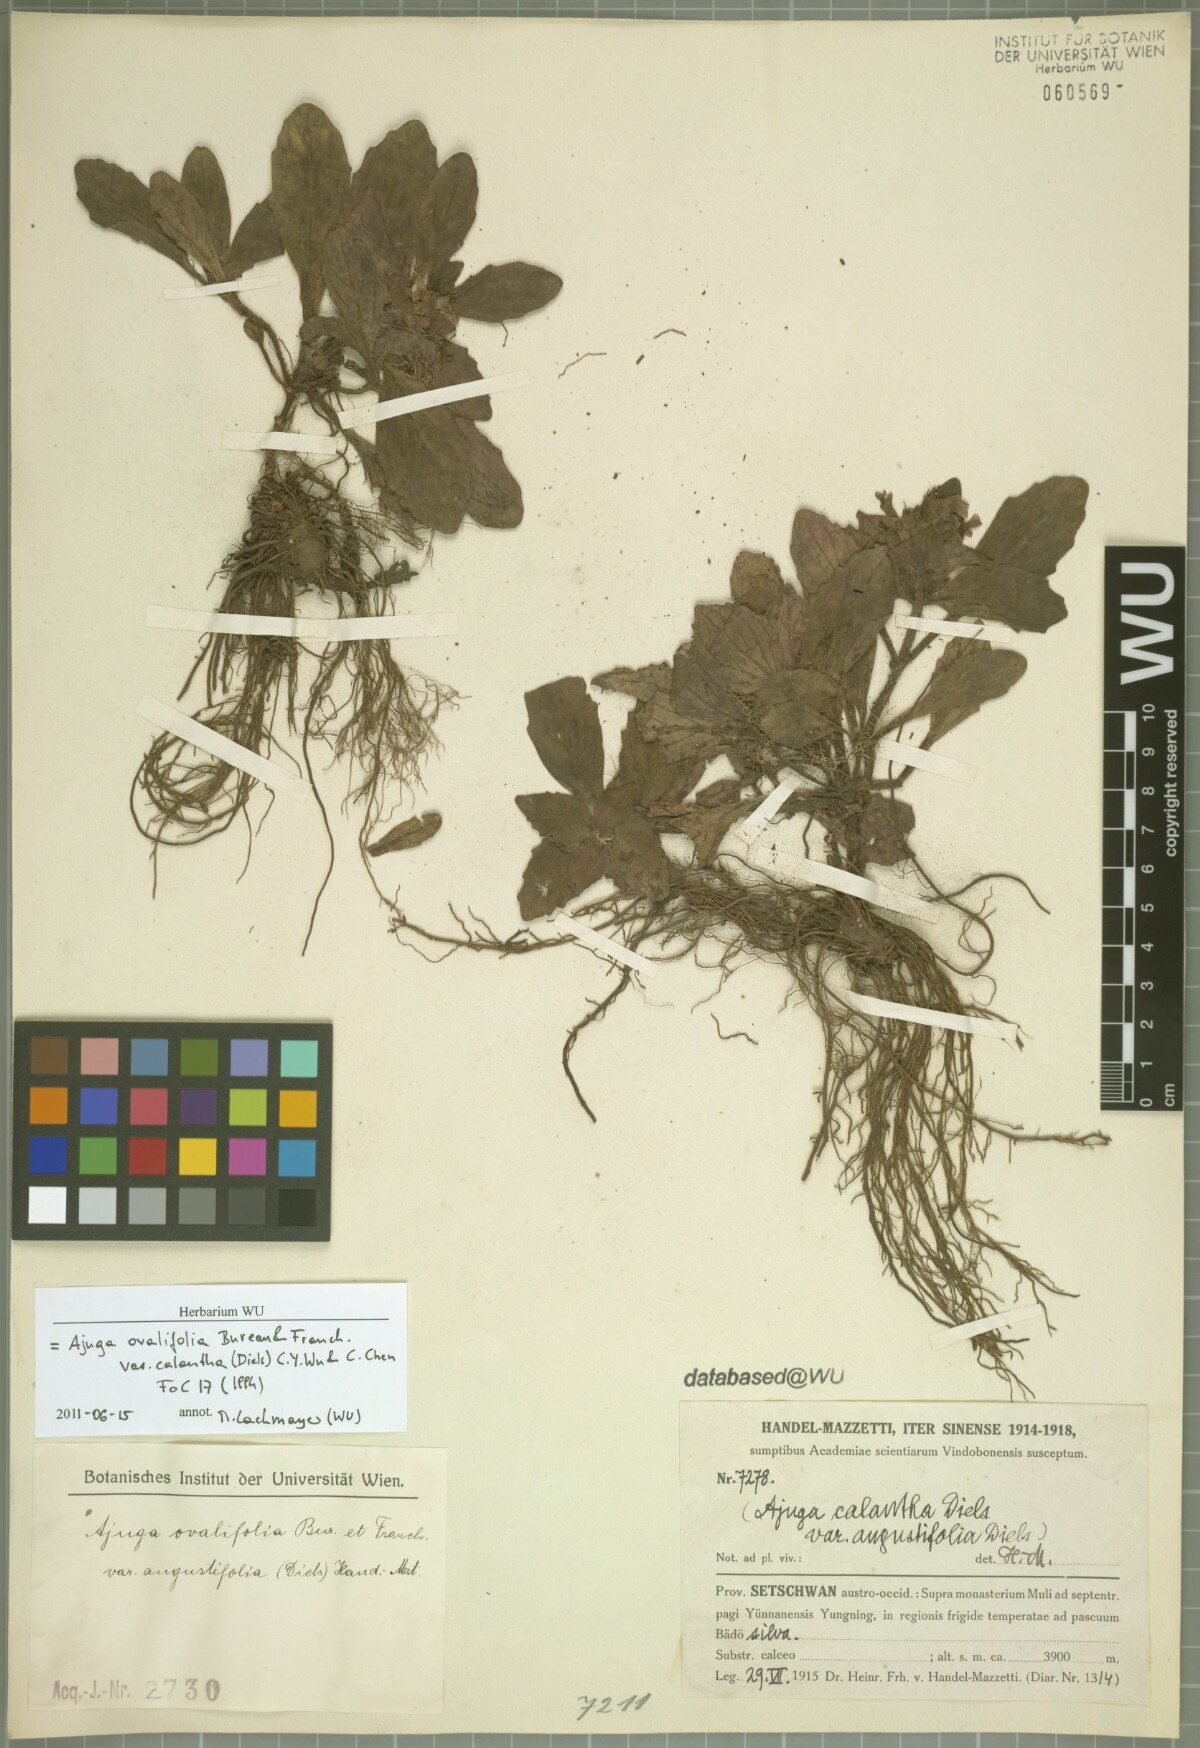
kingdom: Plantae
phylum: Tracheophyta
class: Magnoliopsida
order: Lamiales
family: Lamiaceae
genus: Ajuga
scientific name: Ajuga ovalifolia
